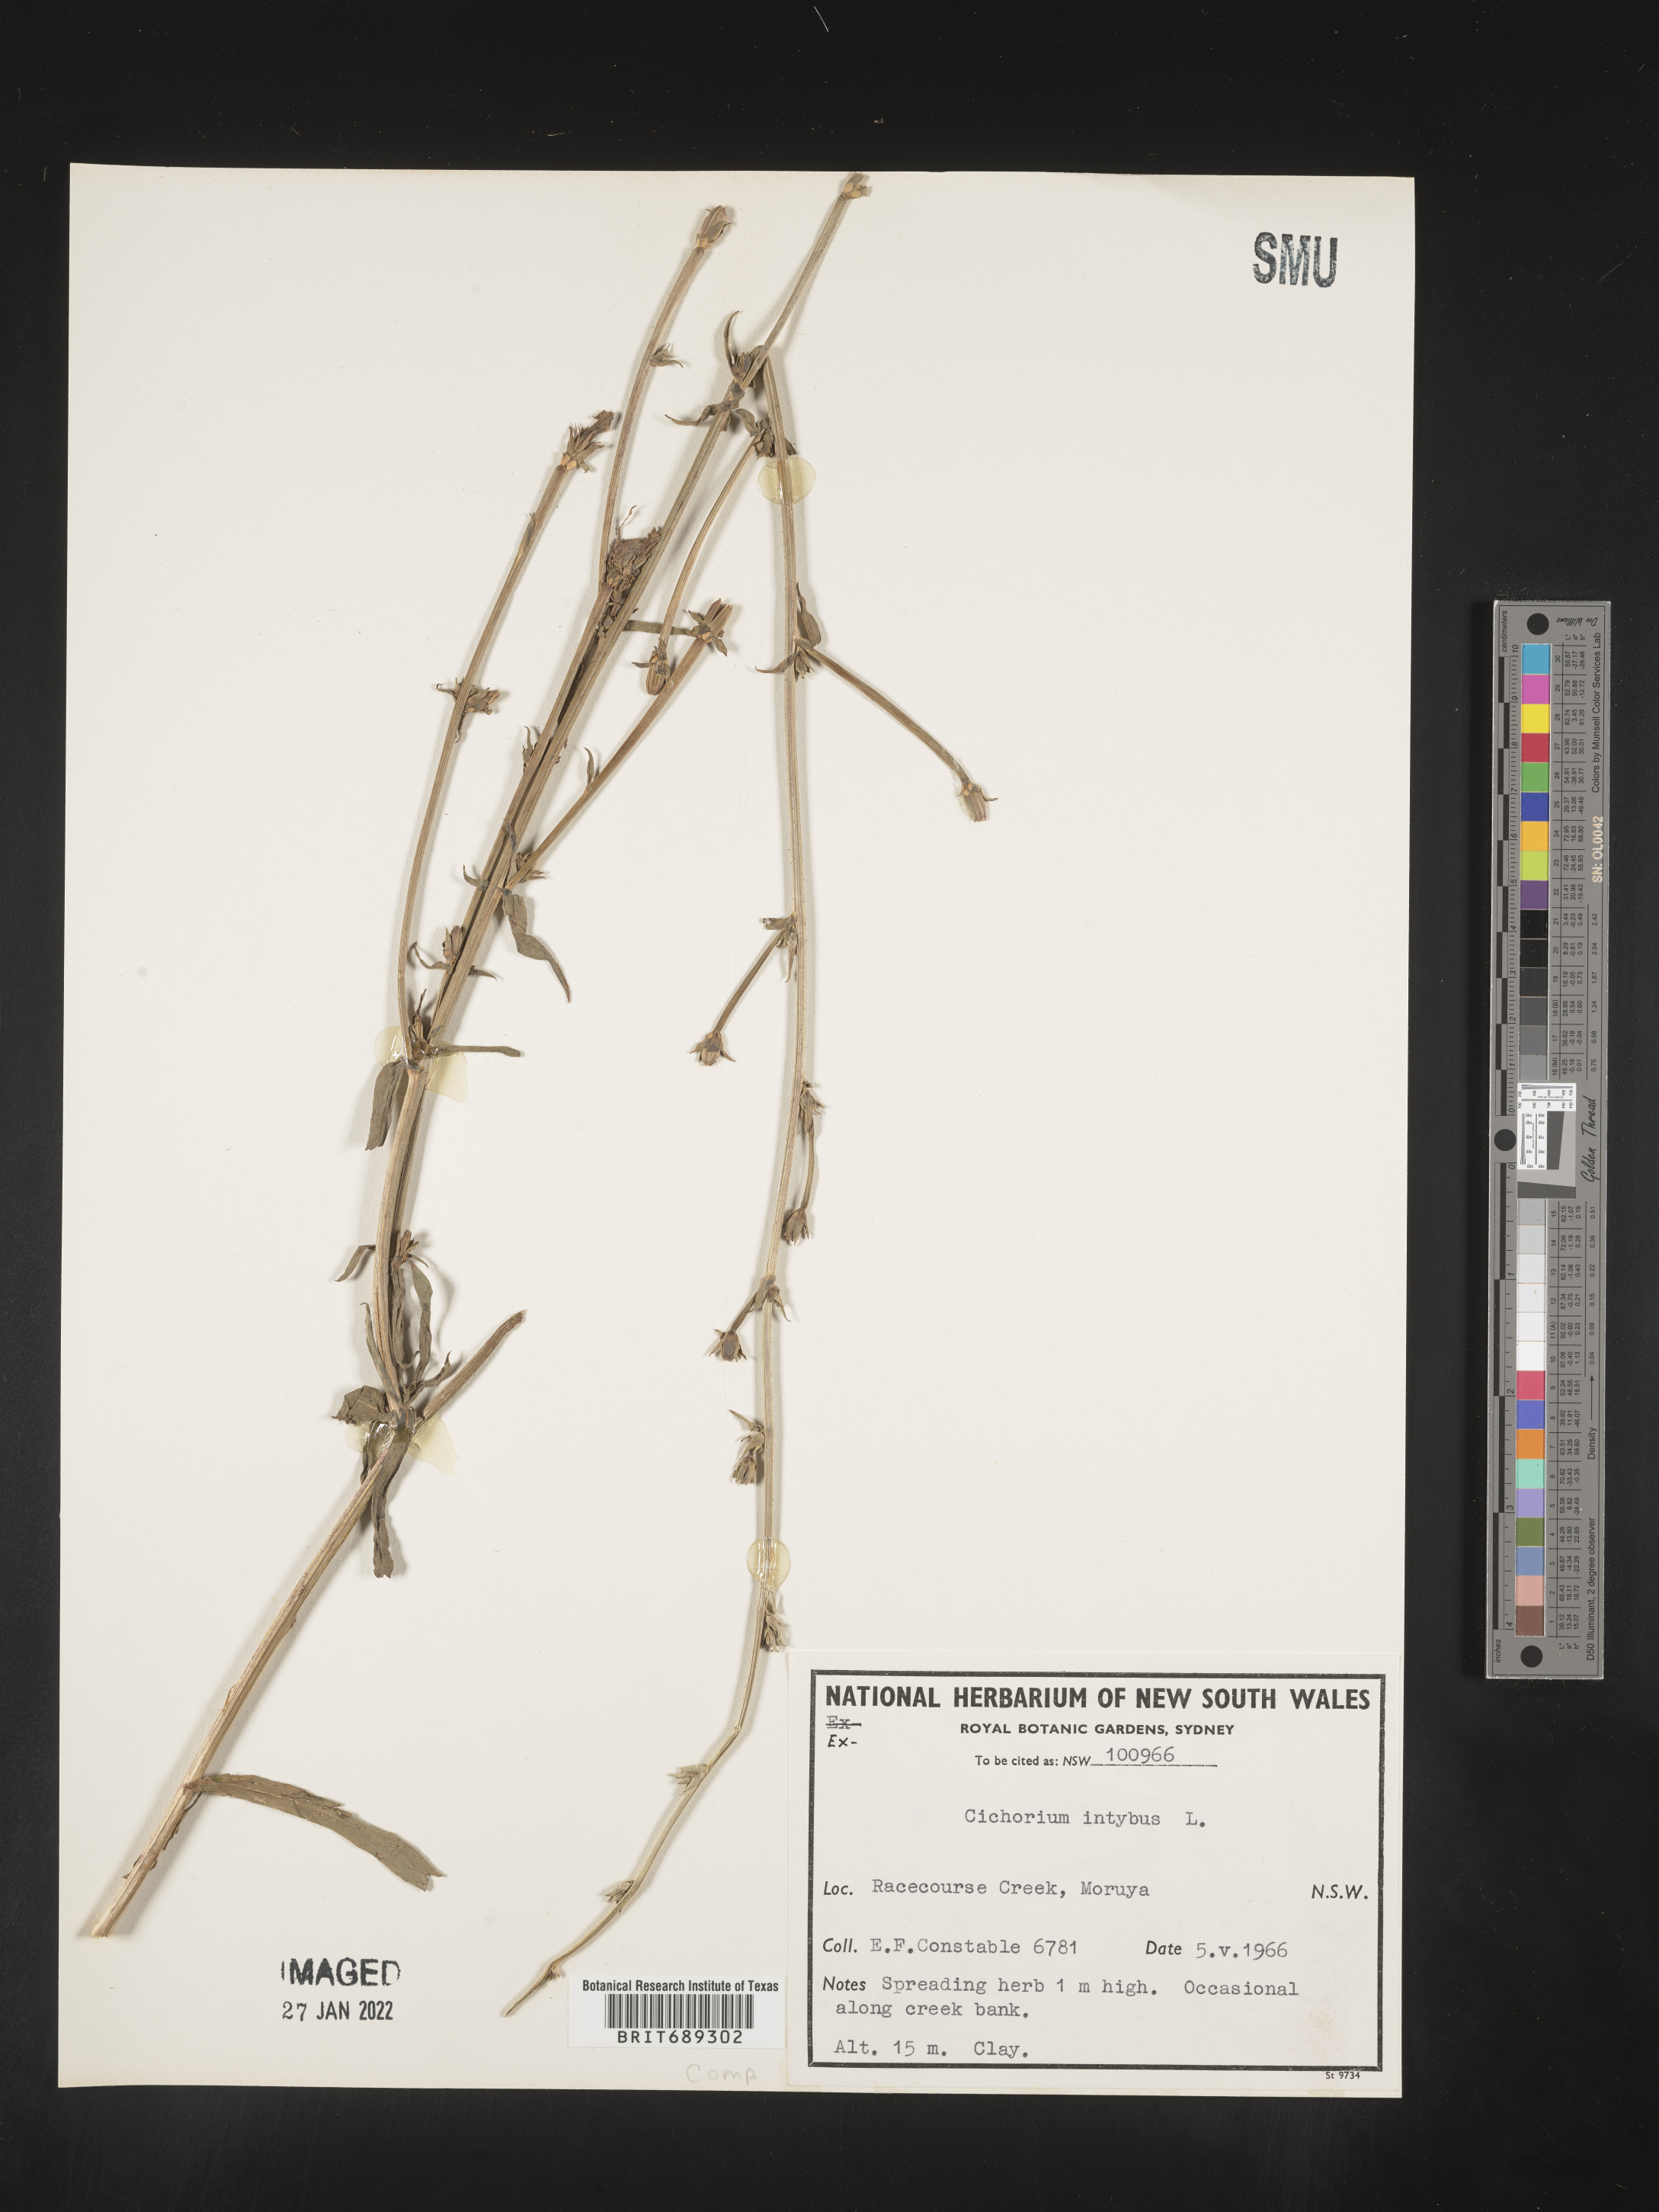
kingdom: Plantae
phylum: Tracheophyta
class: Magnoliopsida
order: Asterales
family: Asteraceae
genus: Cichorium
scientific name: Cichorium intybus
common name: Chicory
